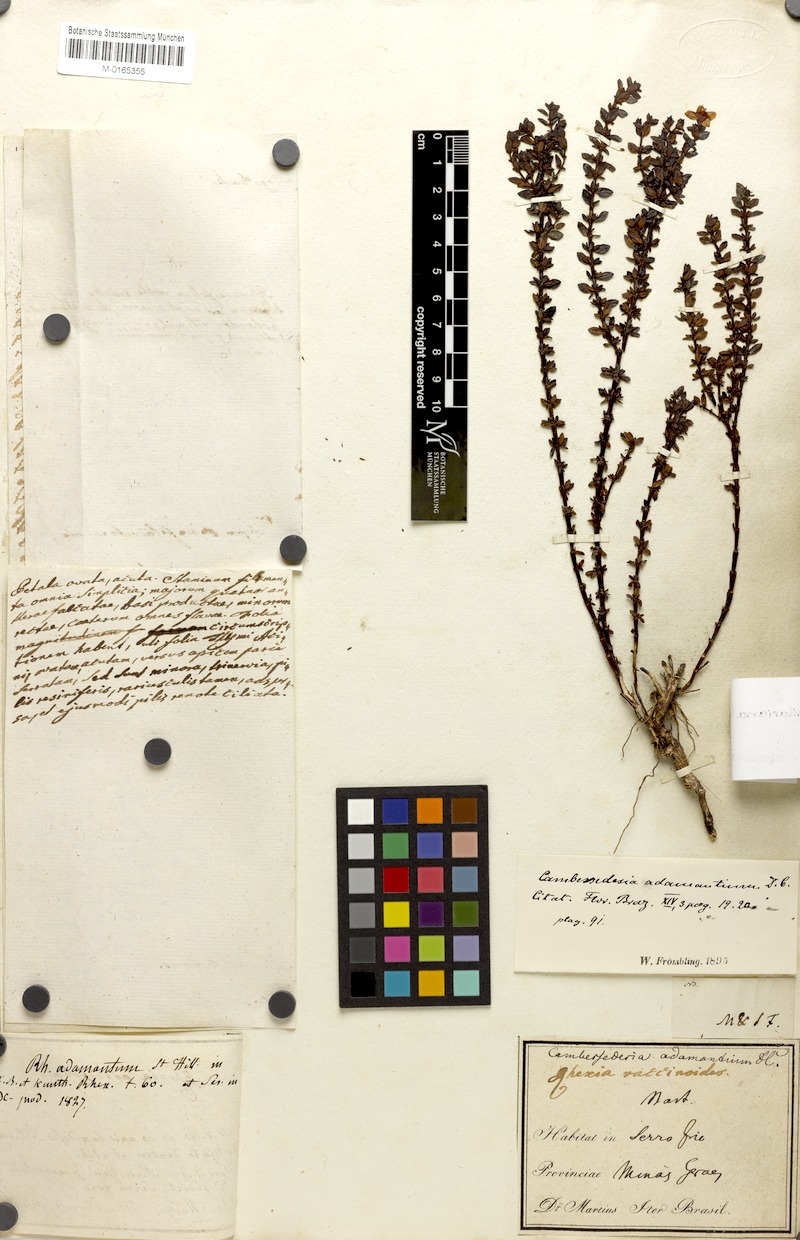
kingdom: Plantae
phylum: Tracheophyta
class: Magnoliopsida
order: Myrtales
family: Melastomataceae
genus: Cambessedesia
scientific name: Cambessedesia hilariana
